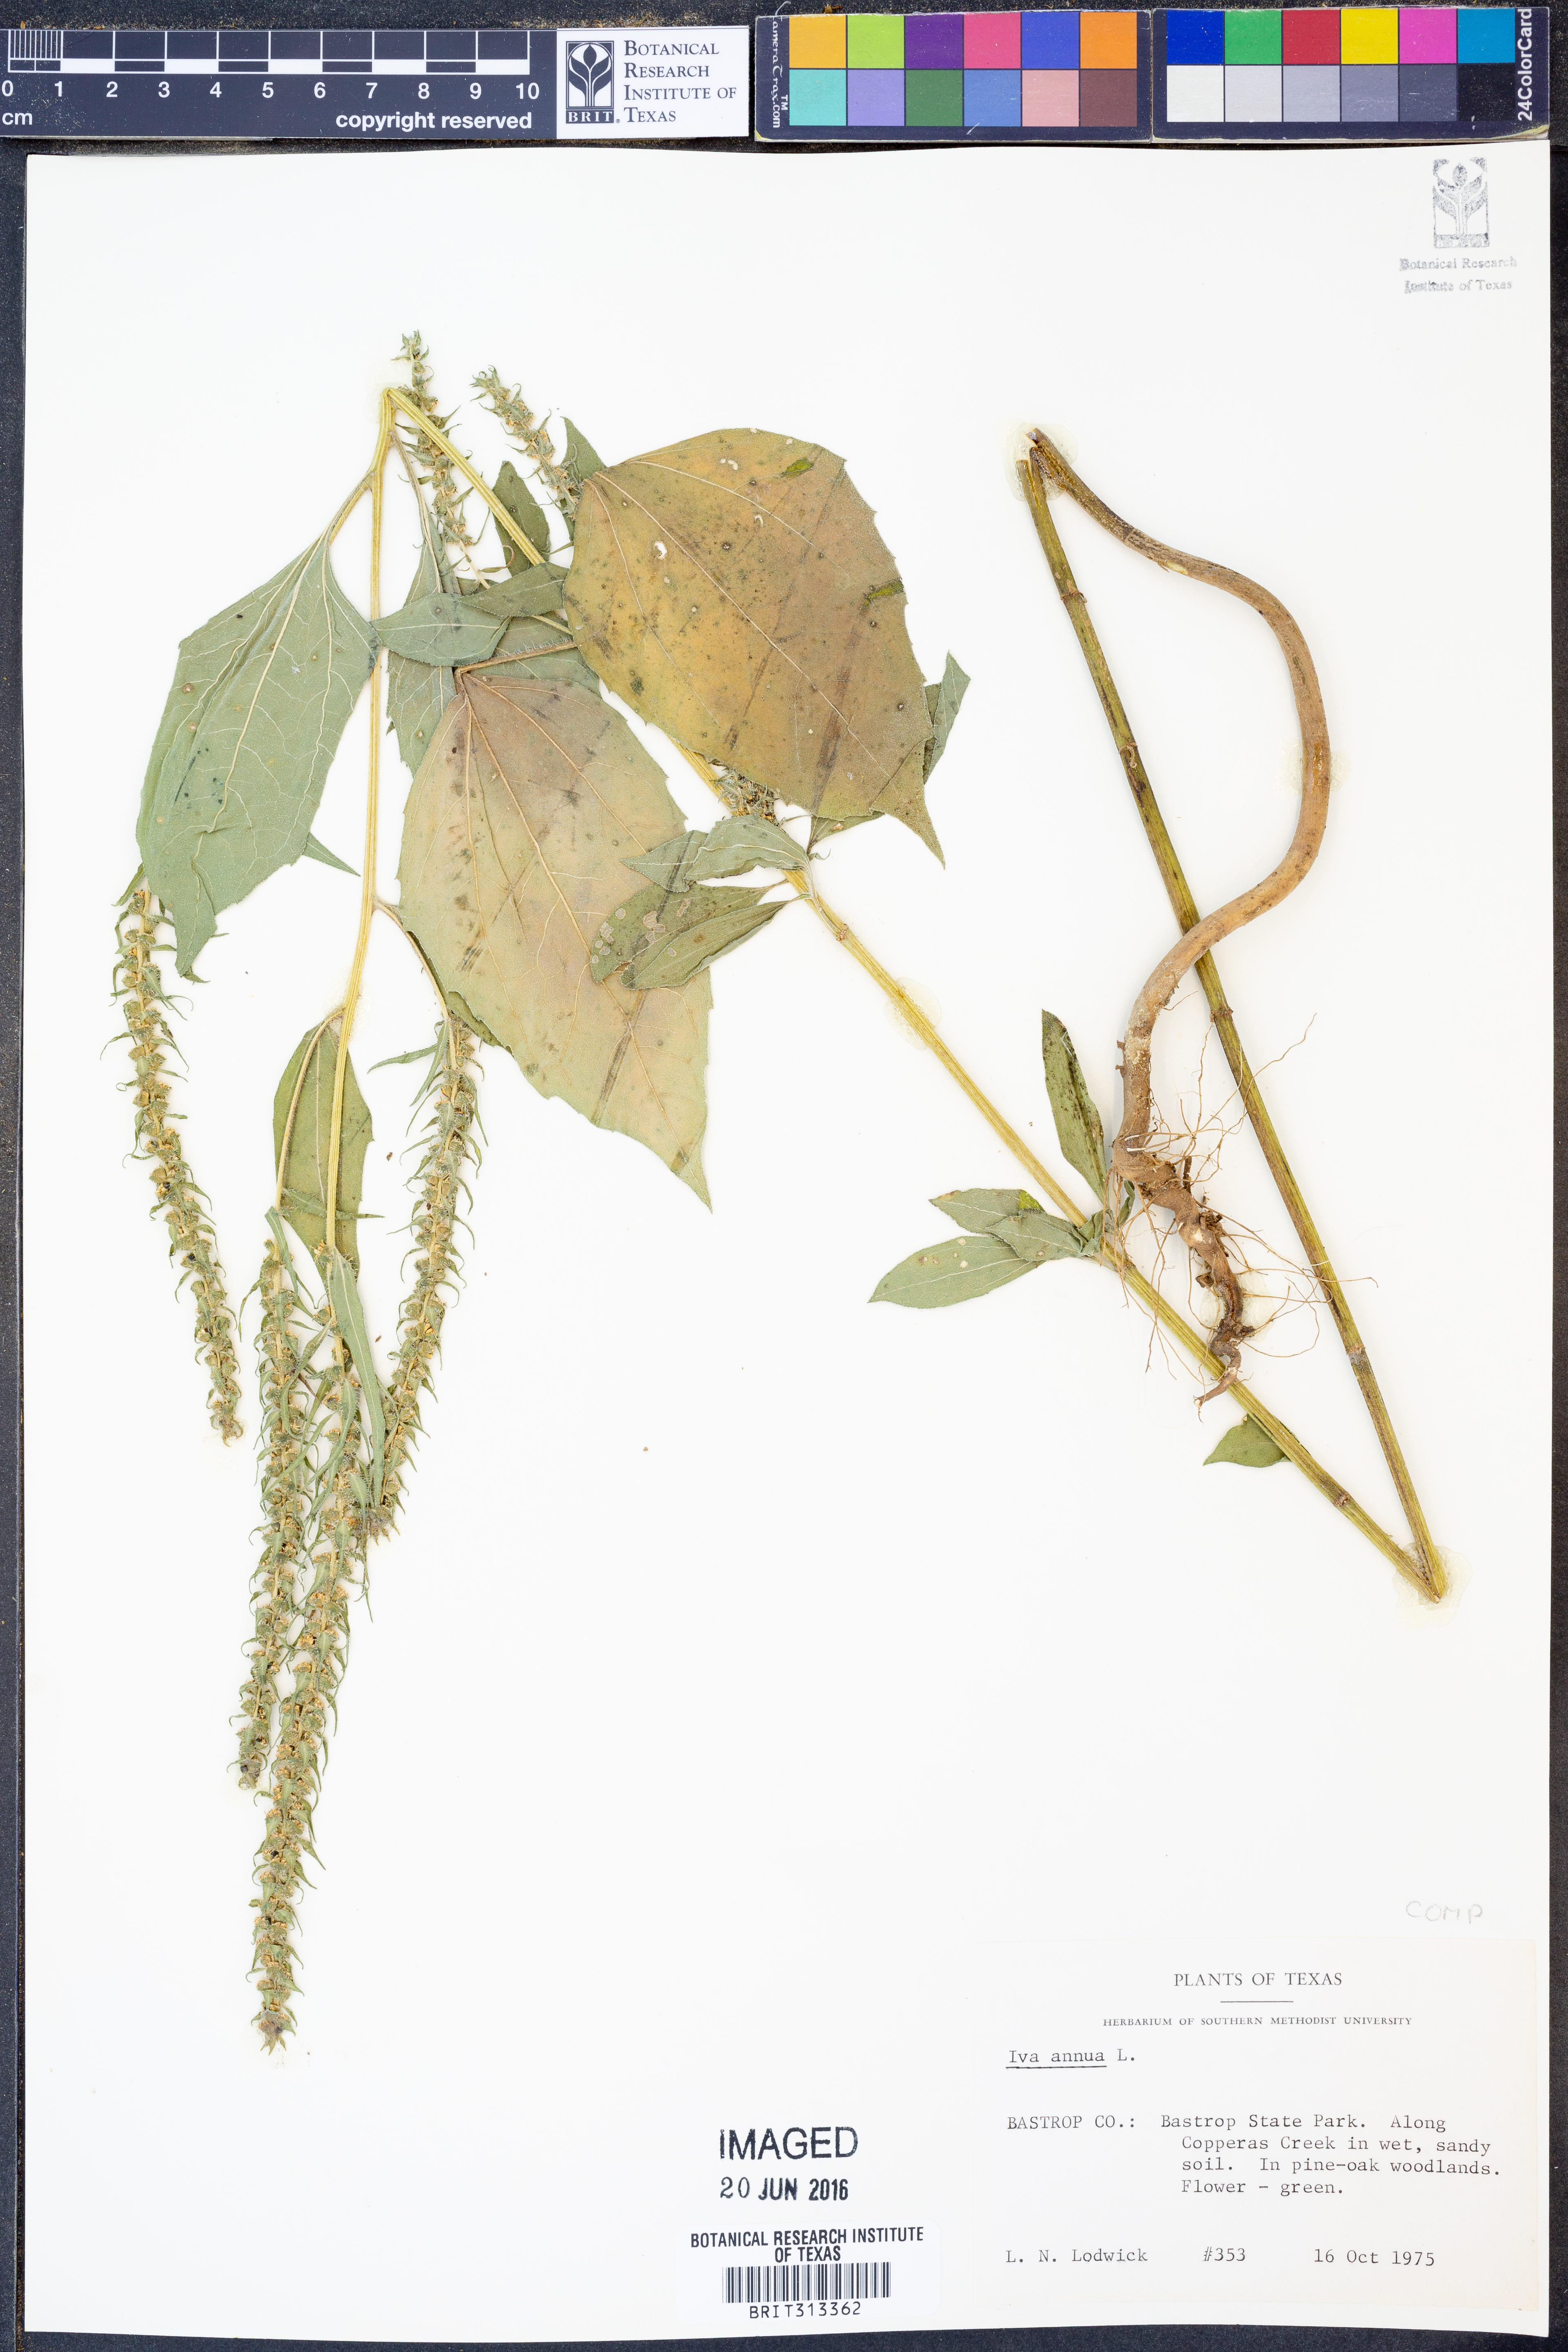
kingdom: Plantae
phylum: Tracheophyta
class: Magnoliopsida
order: Asterales
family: Asteraceae
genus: Iva
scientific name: Iva annua
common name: Marsh-elder
